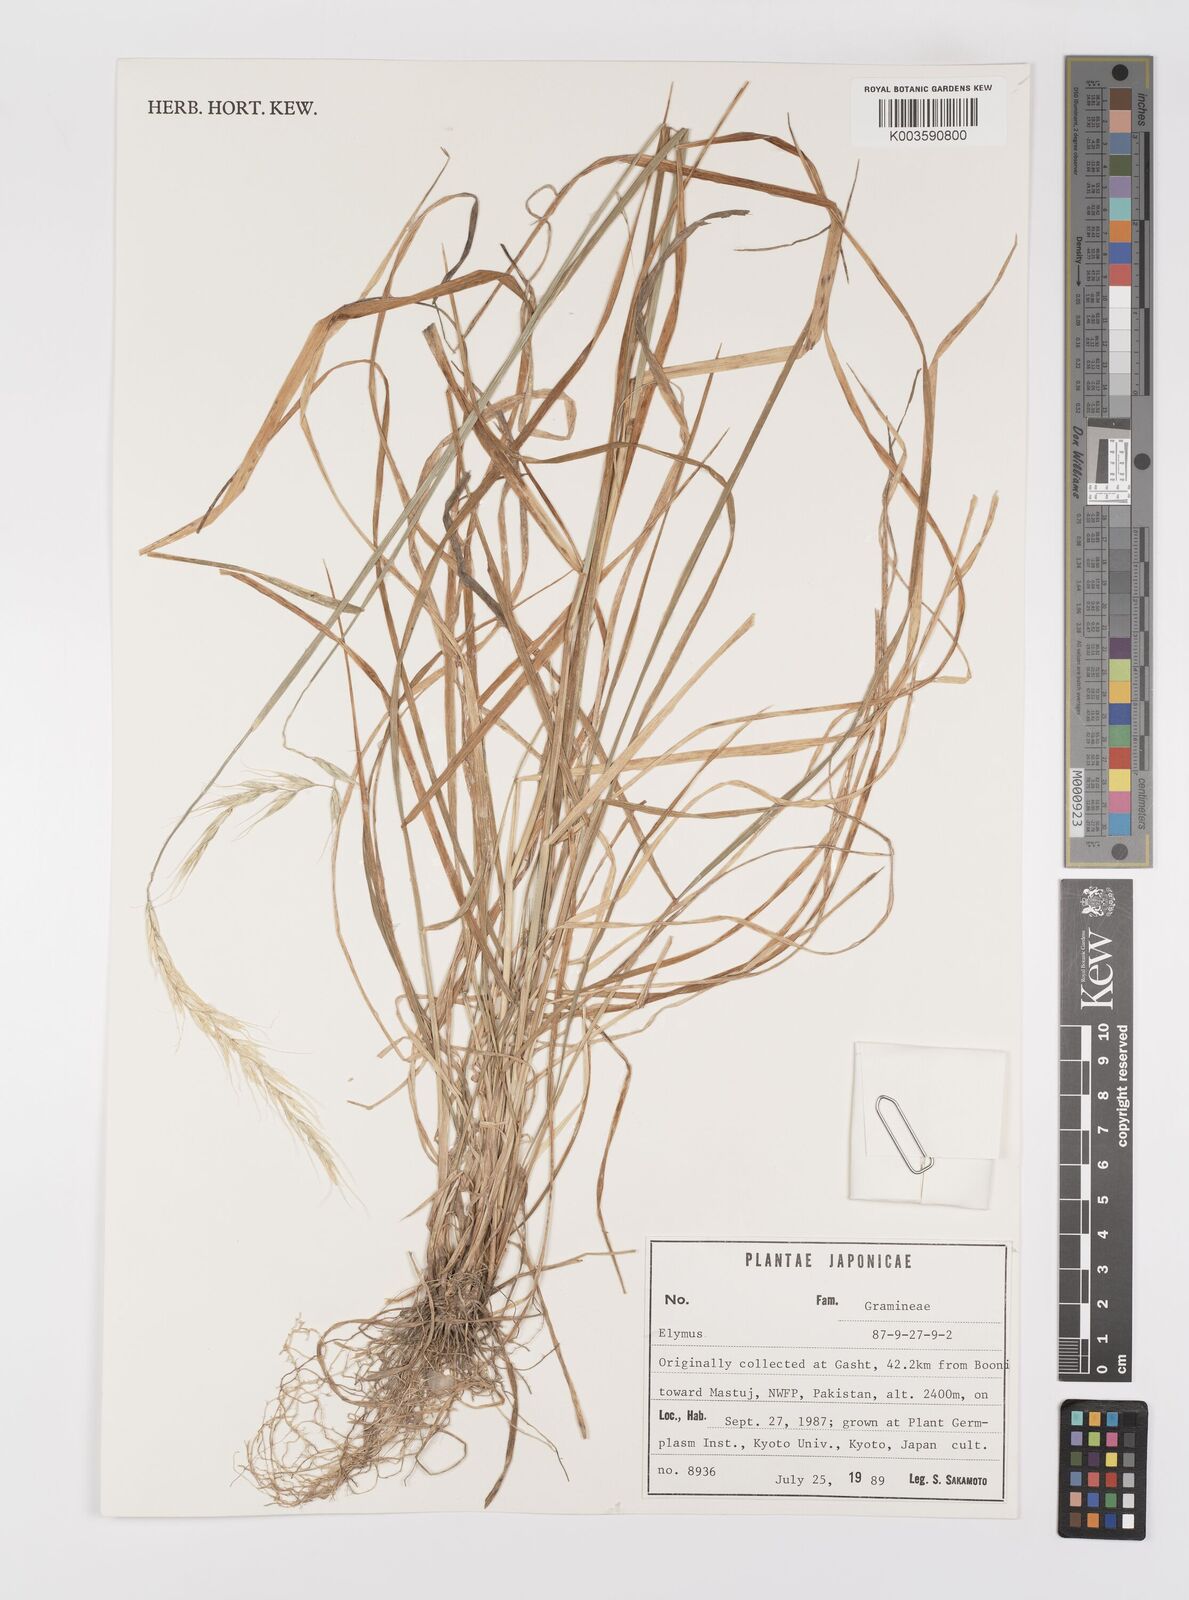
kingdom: Plantae
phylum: Tracheophyta
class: Liliopsida
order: Poales
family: Poaceae
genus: Elymus
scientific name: Elymus
